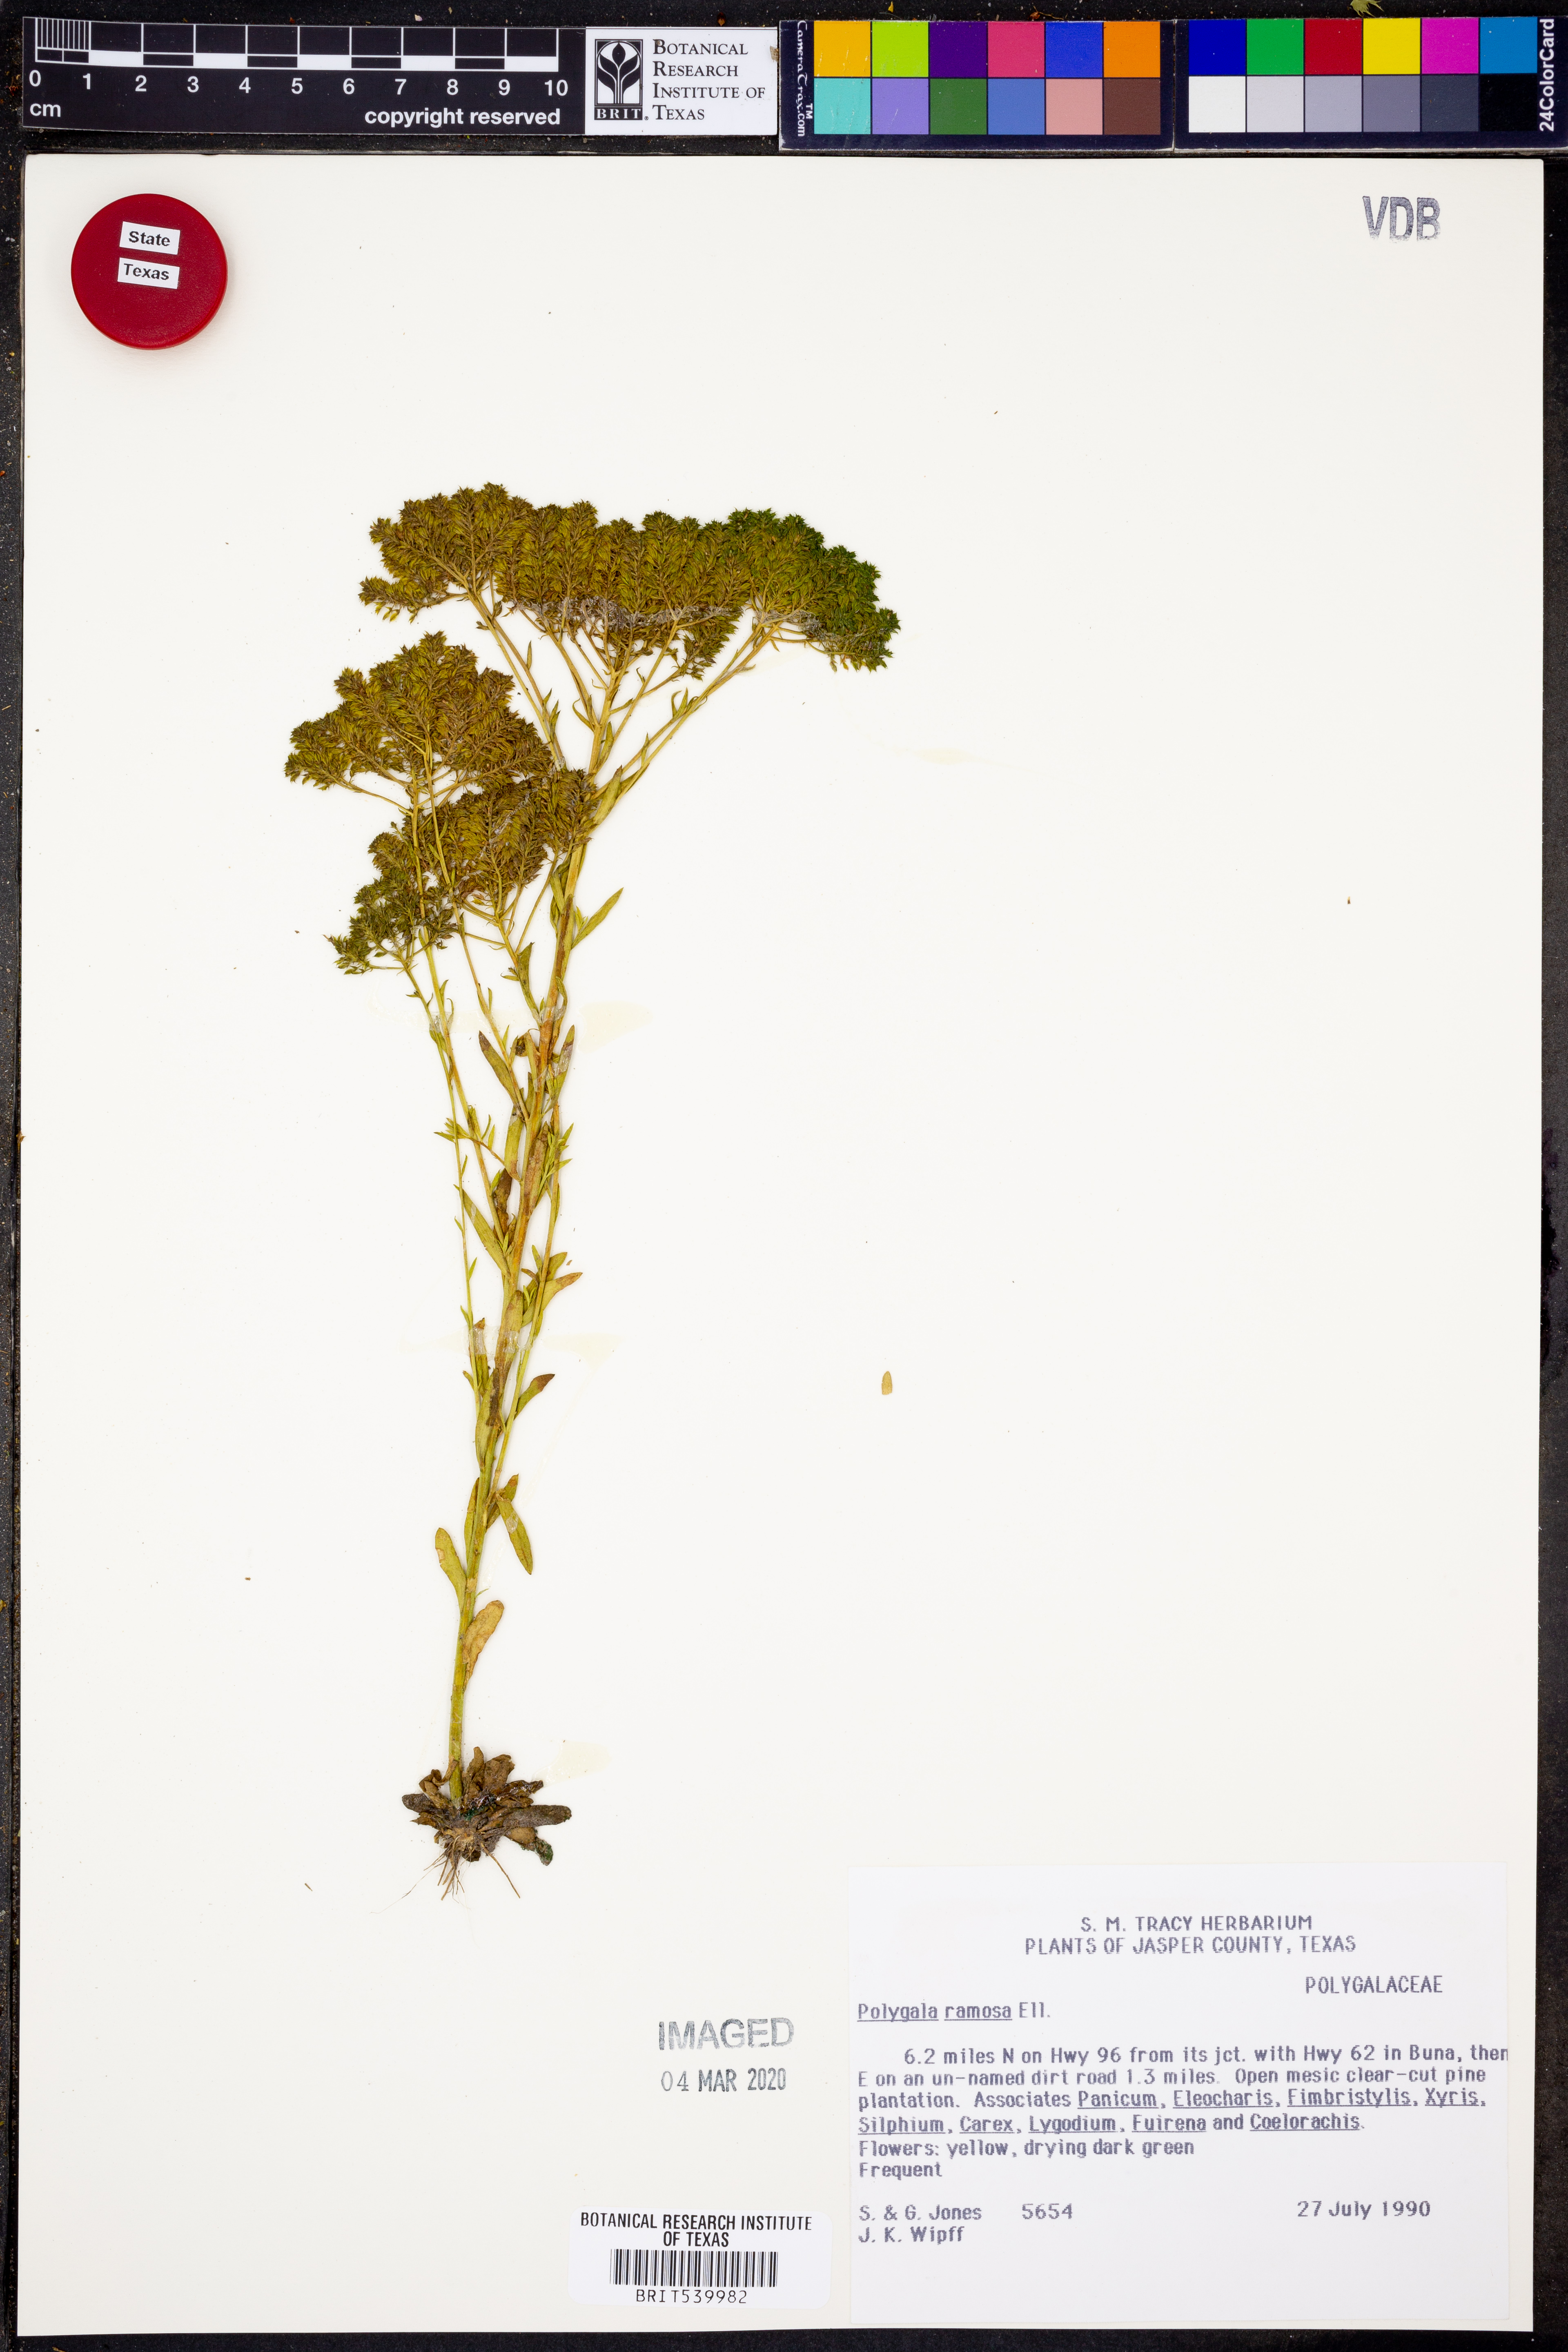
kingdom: Plantae
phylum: Tracheophyta
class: Magnoliopsida
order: Fabales
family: Polygalaceae
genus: Polygala
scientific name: Polygala ramosa
